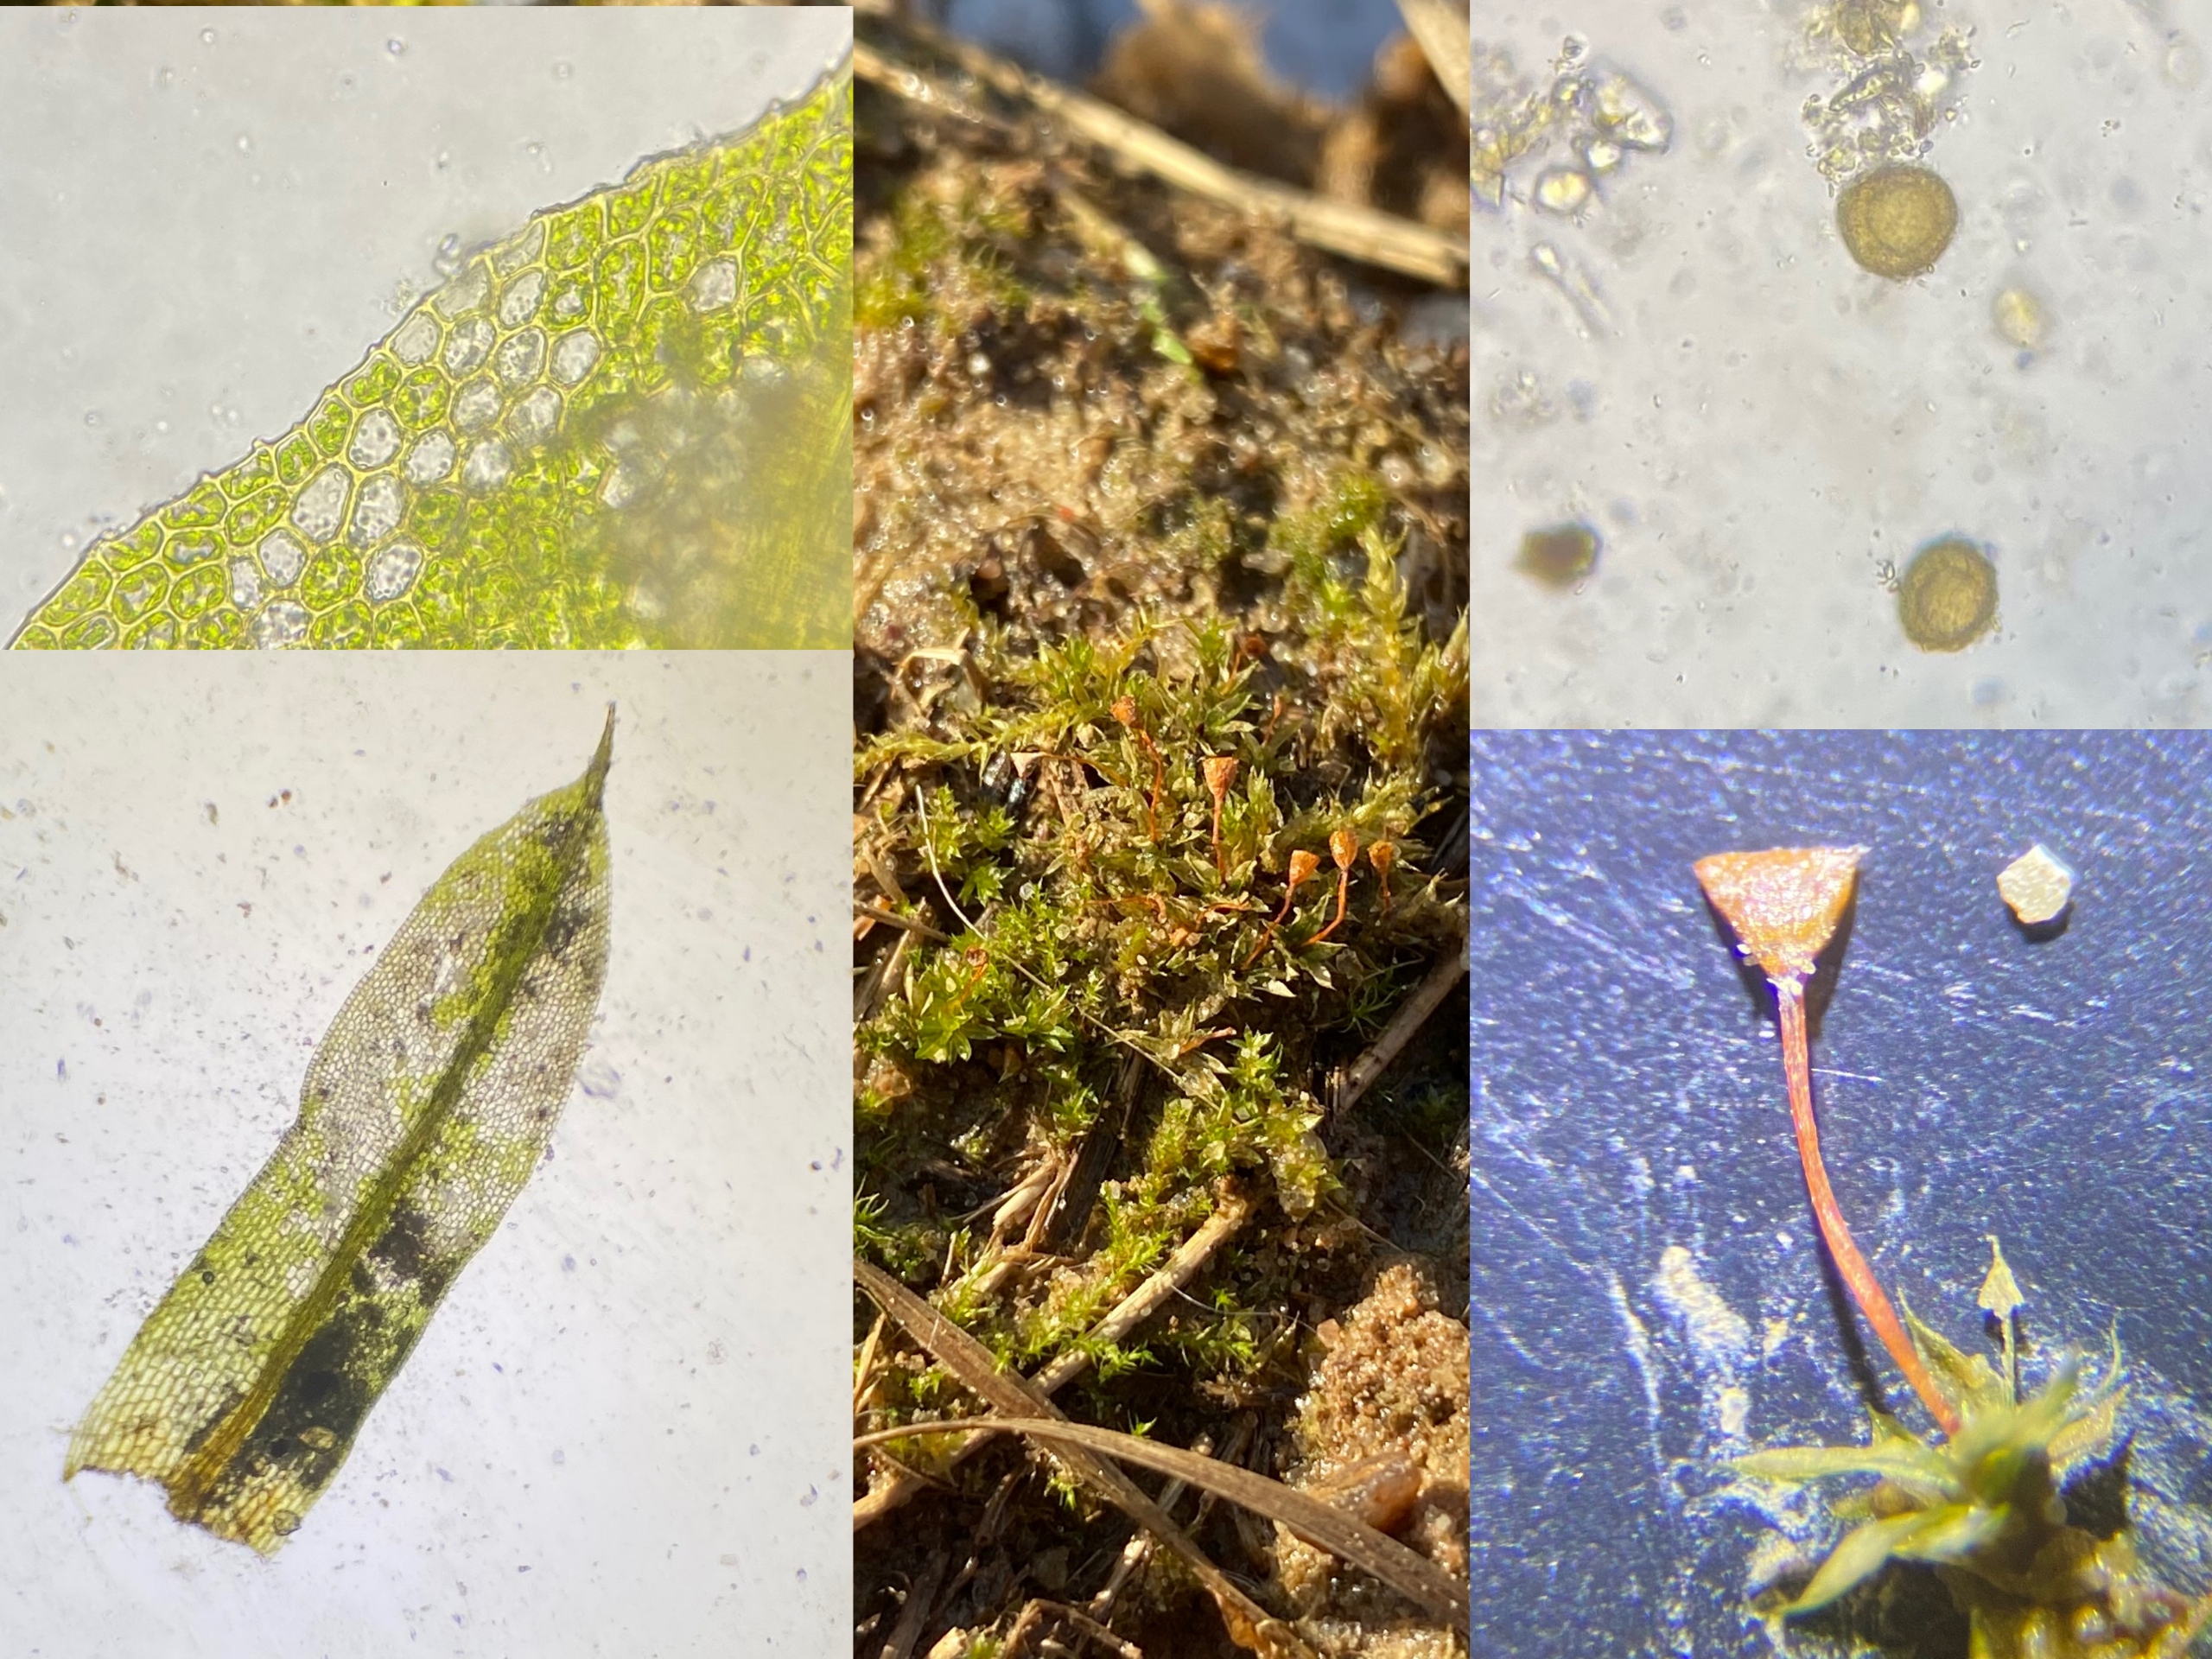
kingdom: Plantae
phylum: Bryophyta
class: Bryopsida
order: Pottiales
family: Pottiaceae
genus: Tortula
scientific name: Tortula truncata
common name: Vidmundet bægermos
